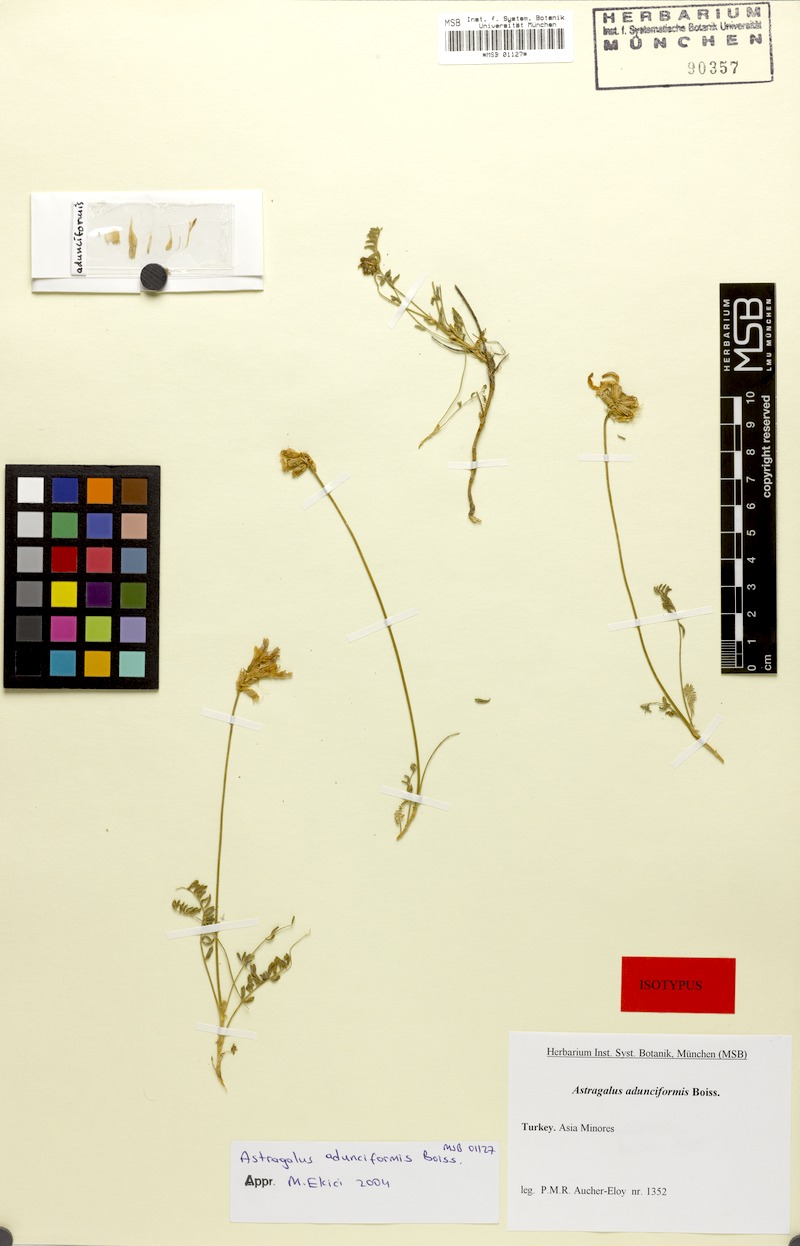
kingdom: Plantae
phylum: Tracheophyta
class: Magnoliopsida
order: Fabales
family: Fabaceae
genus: Astragalus
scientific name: Astragalus adunciformis
